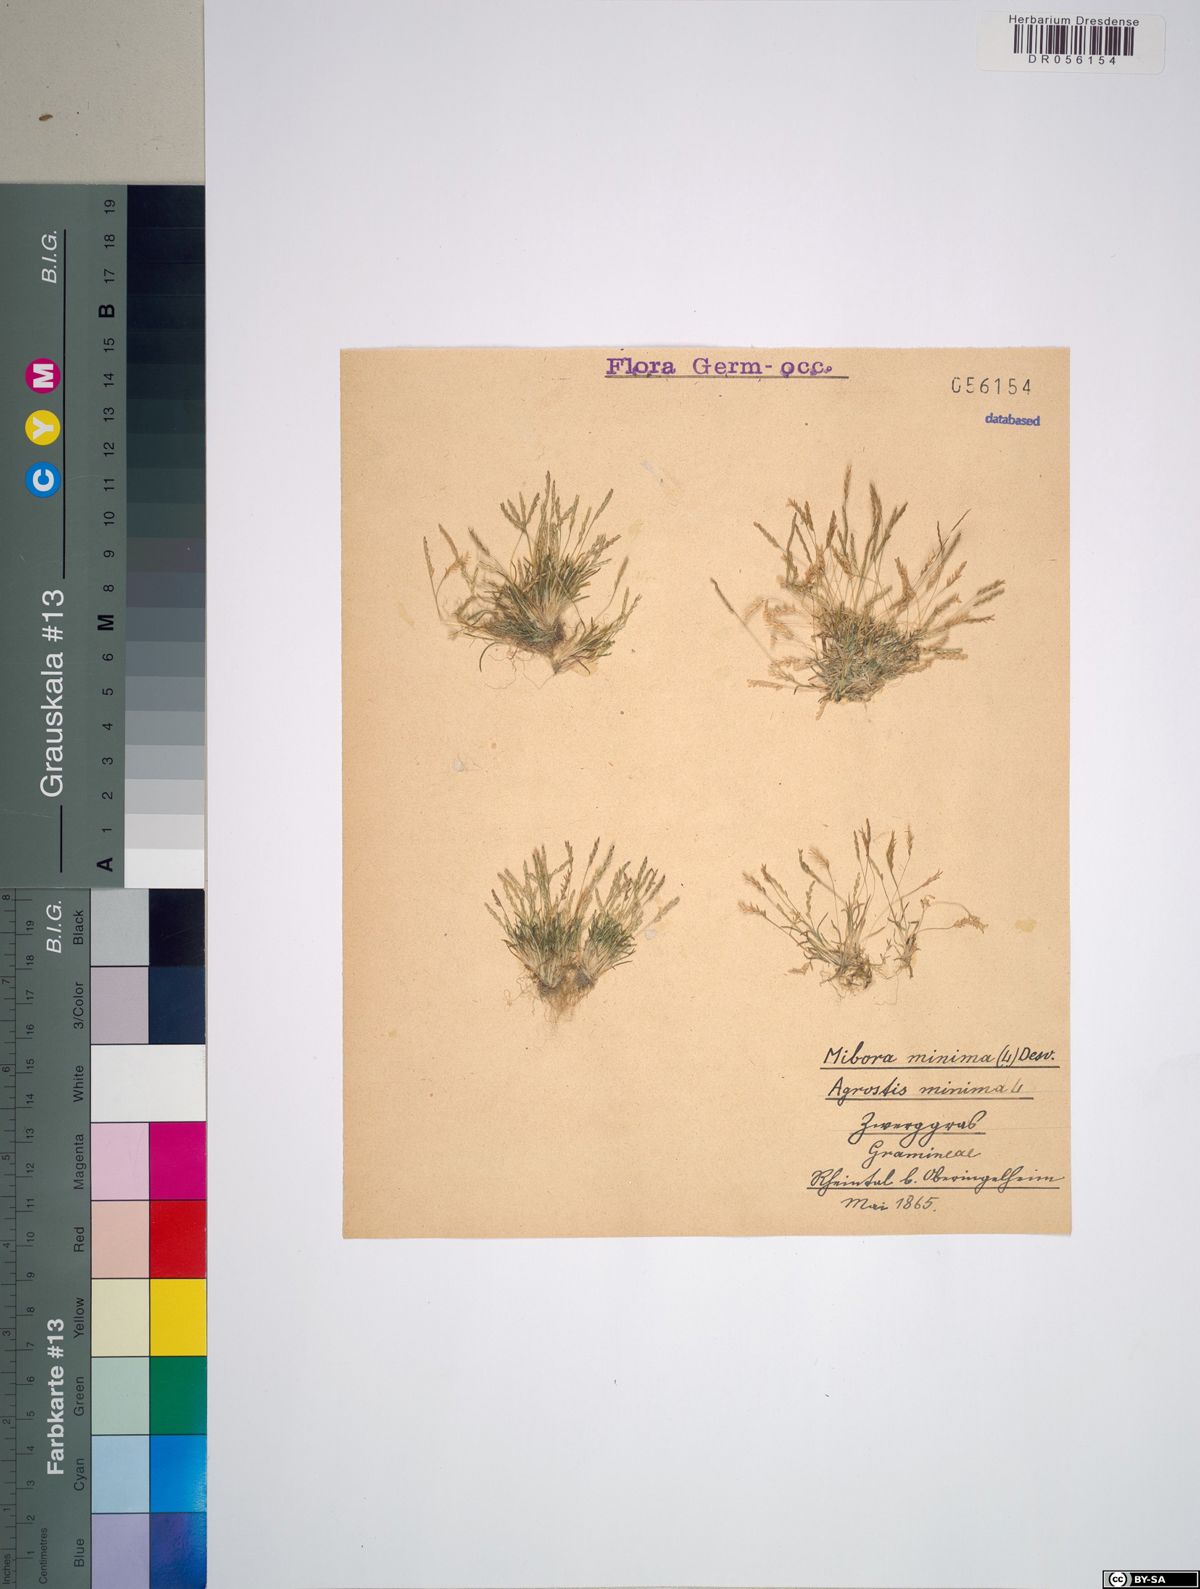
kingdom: Plantae
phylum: Tracheophyta
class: Liliopsida
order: Poales
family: Poaceae
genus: Mibora
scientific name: Mibora minima
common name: Early sand-grass
